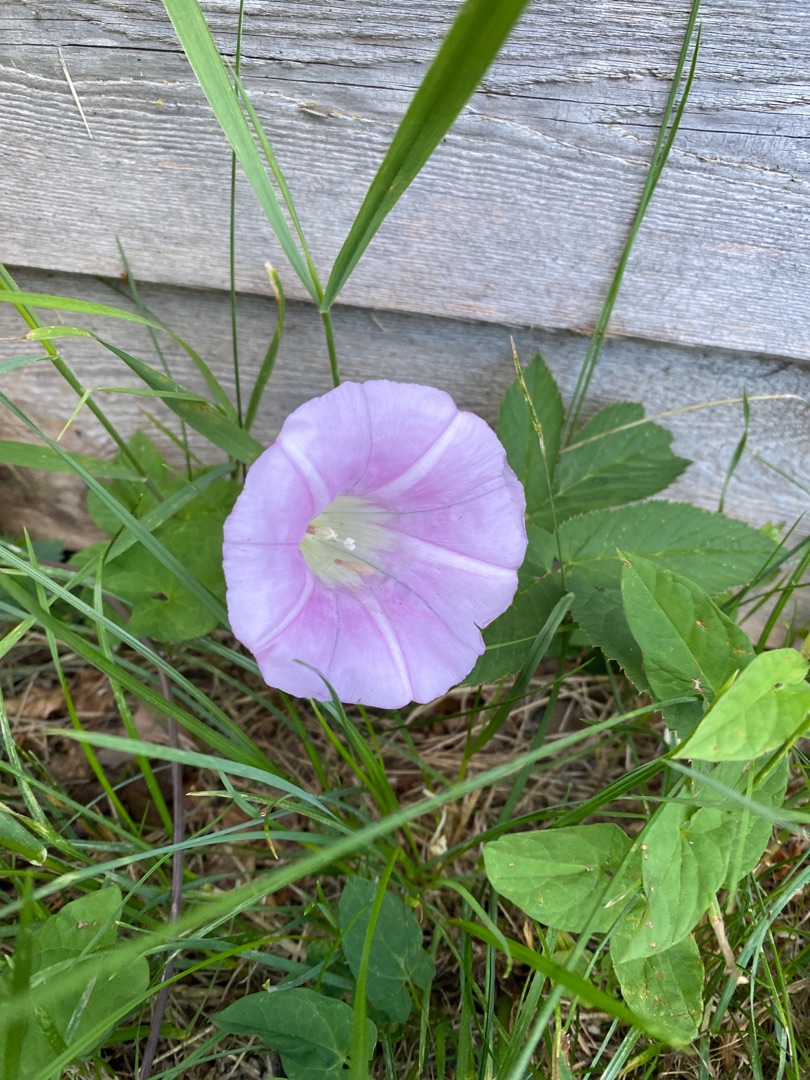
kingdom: Plantae
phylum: Tracheophyta
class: Magnoliopsida
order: Solanales
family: Convolvulaceae
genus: Calystegia
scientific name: Calystegia sepium
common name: Gærde-snerle
